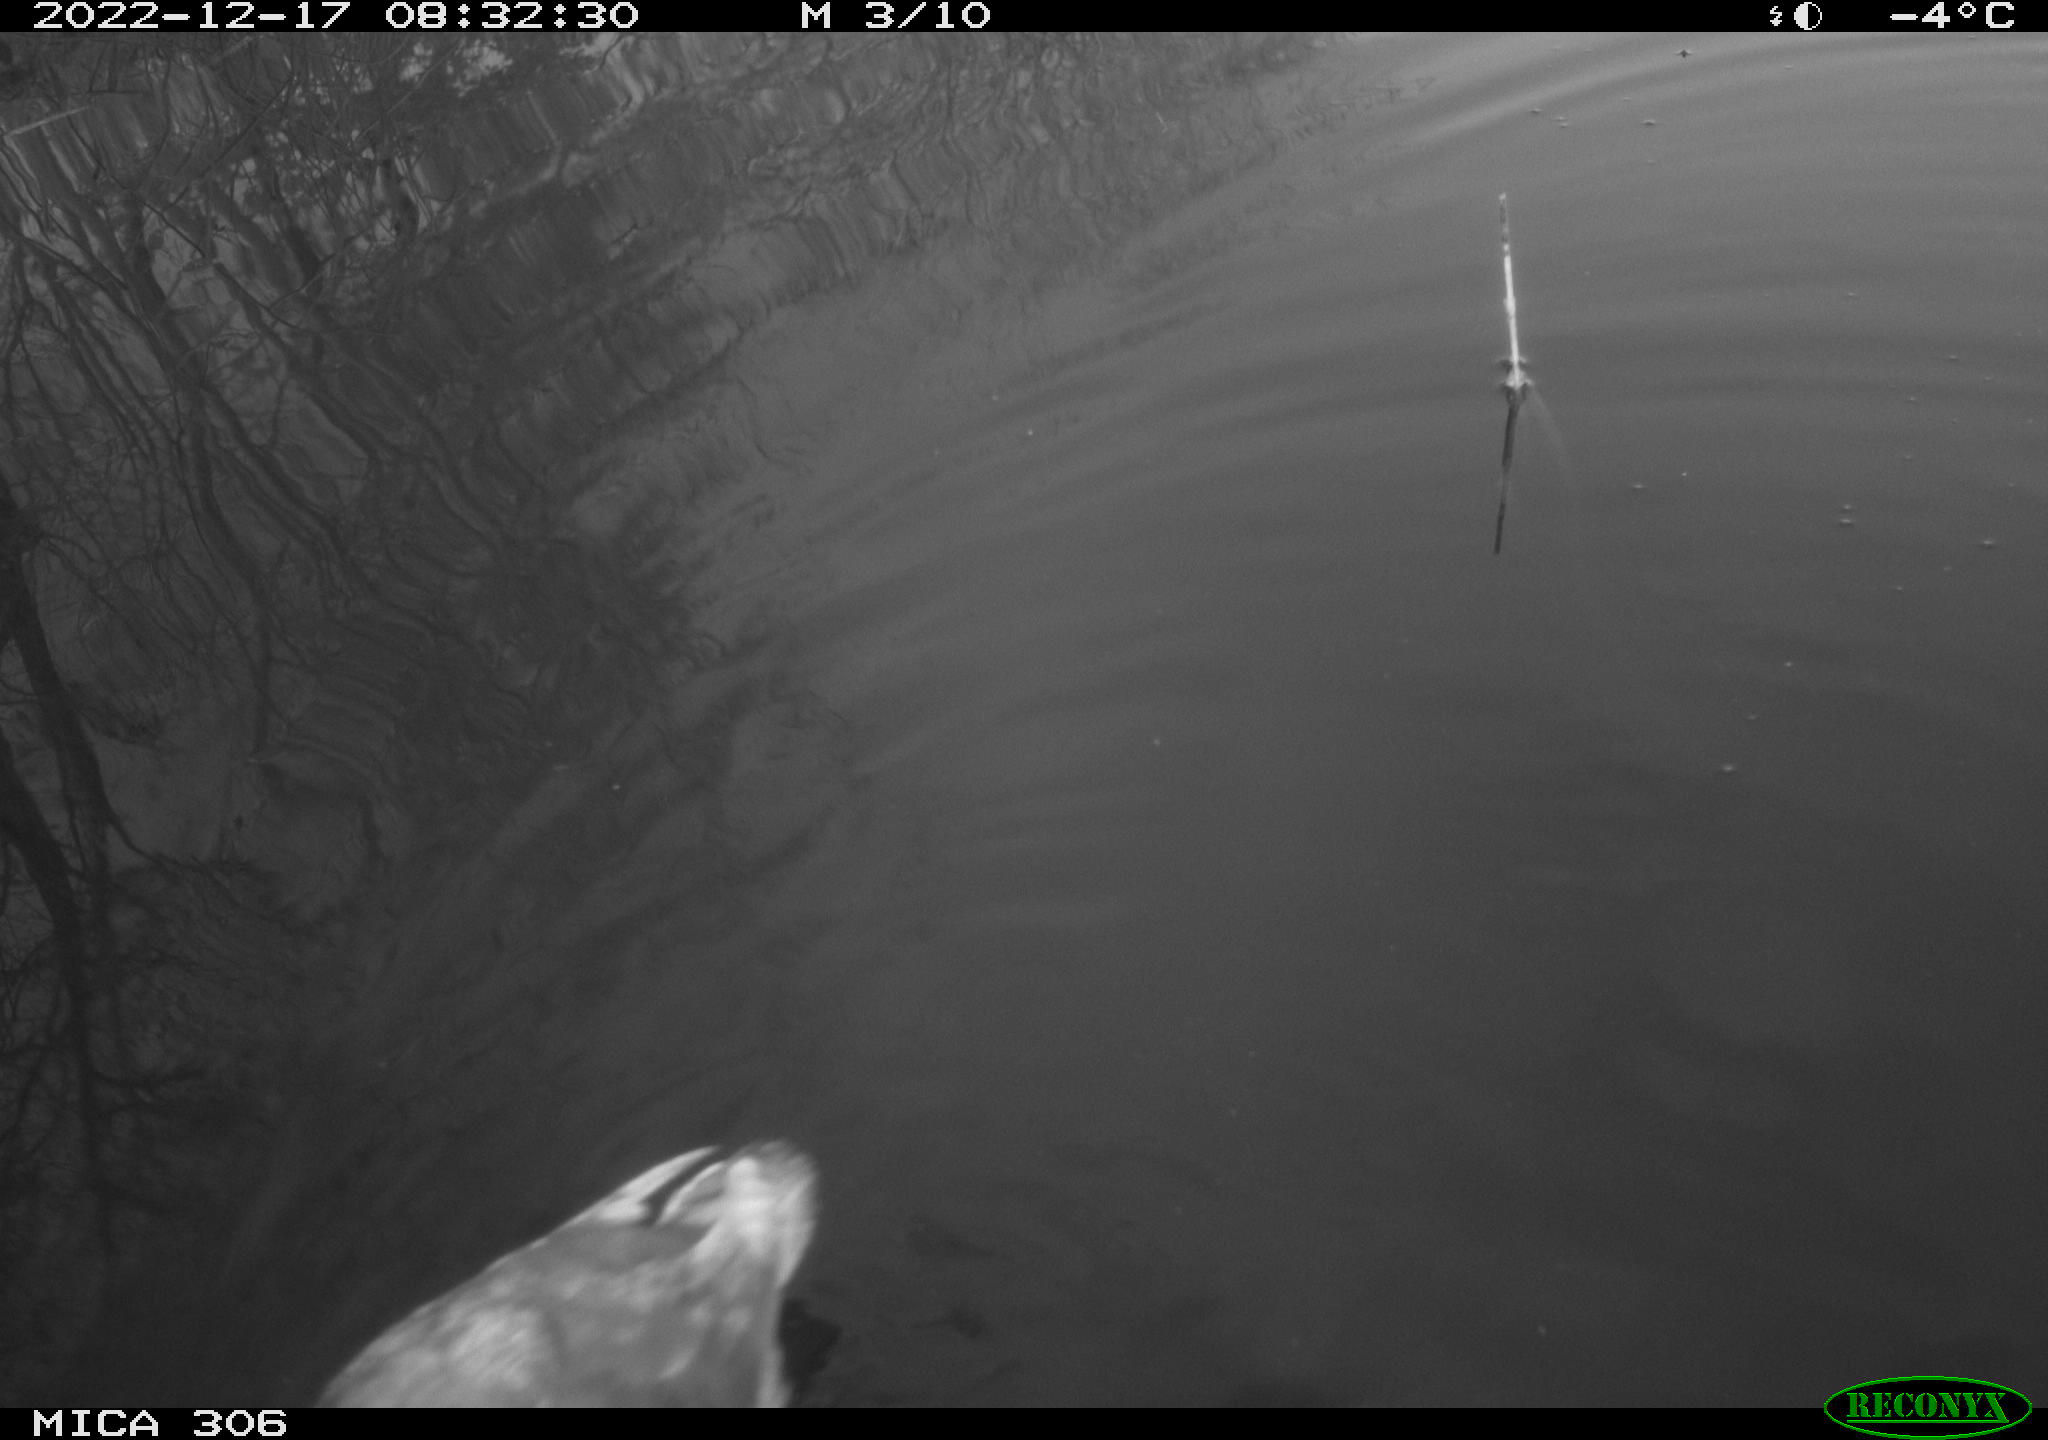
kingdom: Animalia
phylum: Chordata
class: Aves
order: Gruiformes
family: Rallidae
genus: Gallinula
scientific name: Gallinula chloropus
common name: Common moorhen
